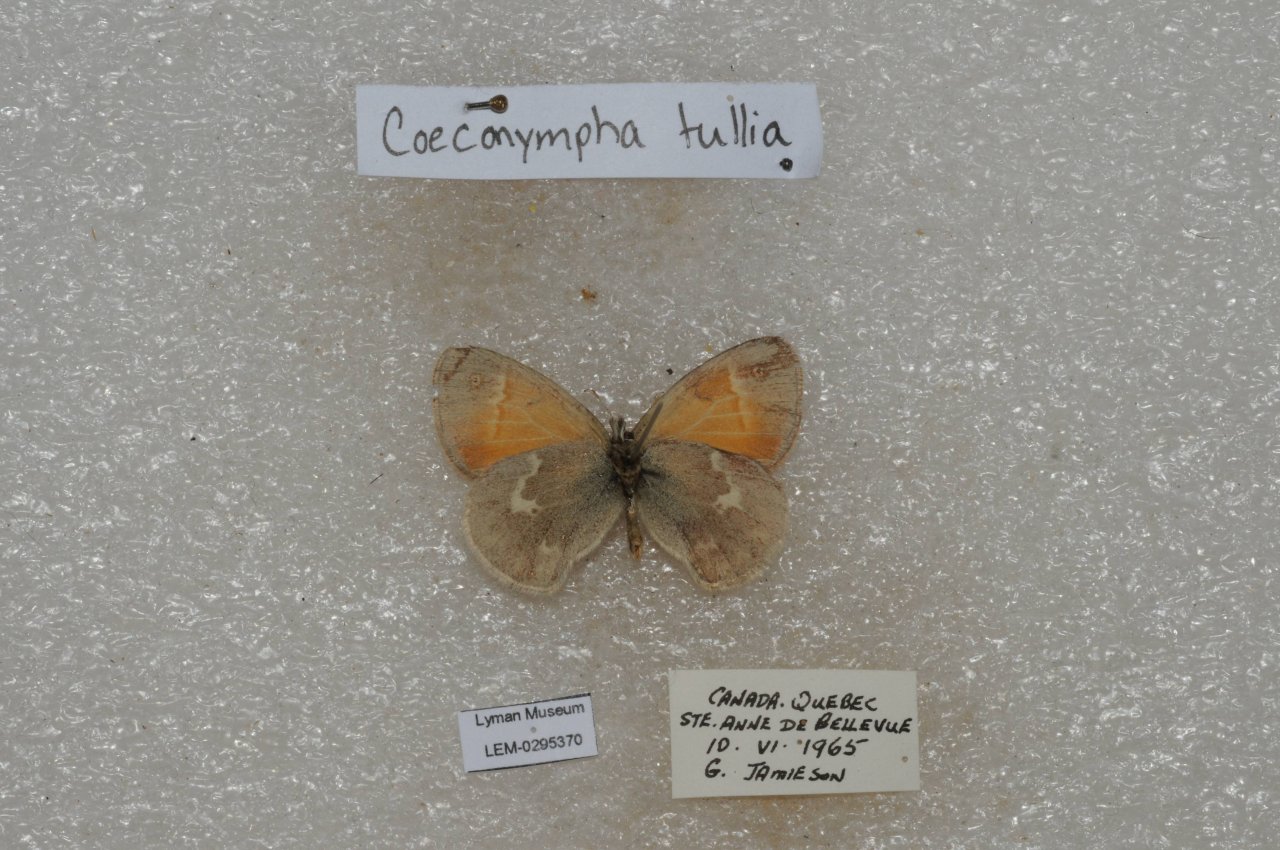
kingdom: Animalia
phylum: Arthropoda
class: Insecta
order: Lepidoptera
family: Nymphalidae
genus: Coenonympha
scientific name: Coenonympha tullia
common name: Large Heath
